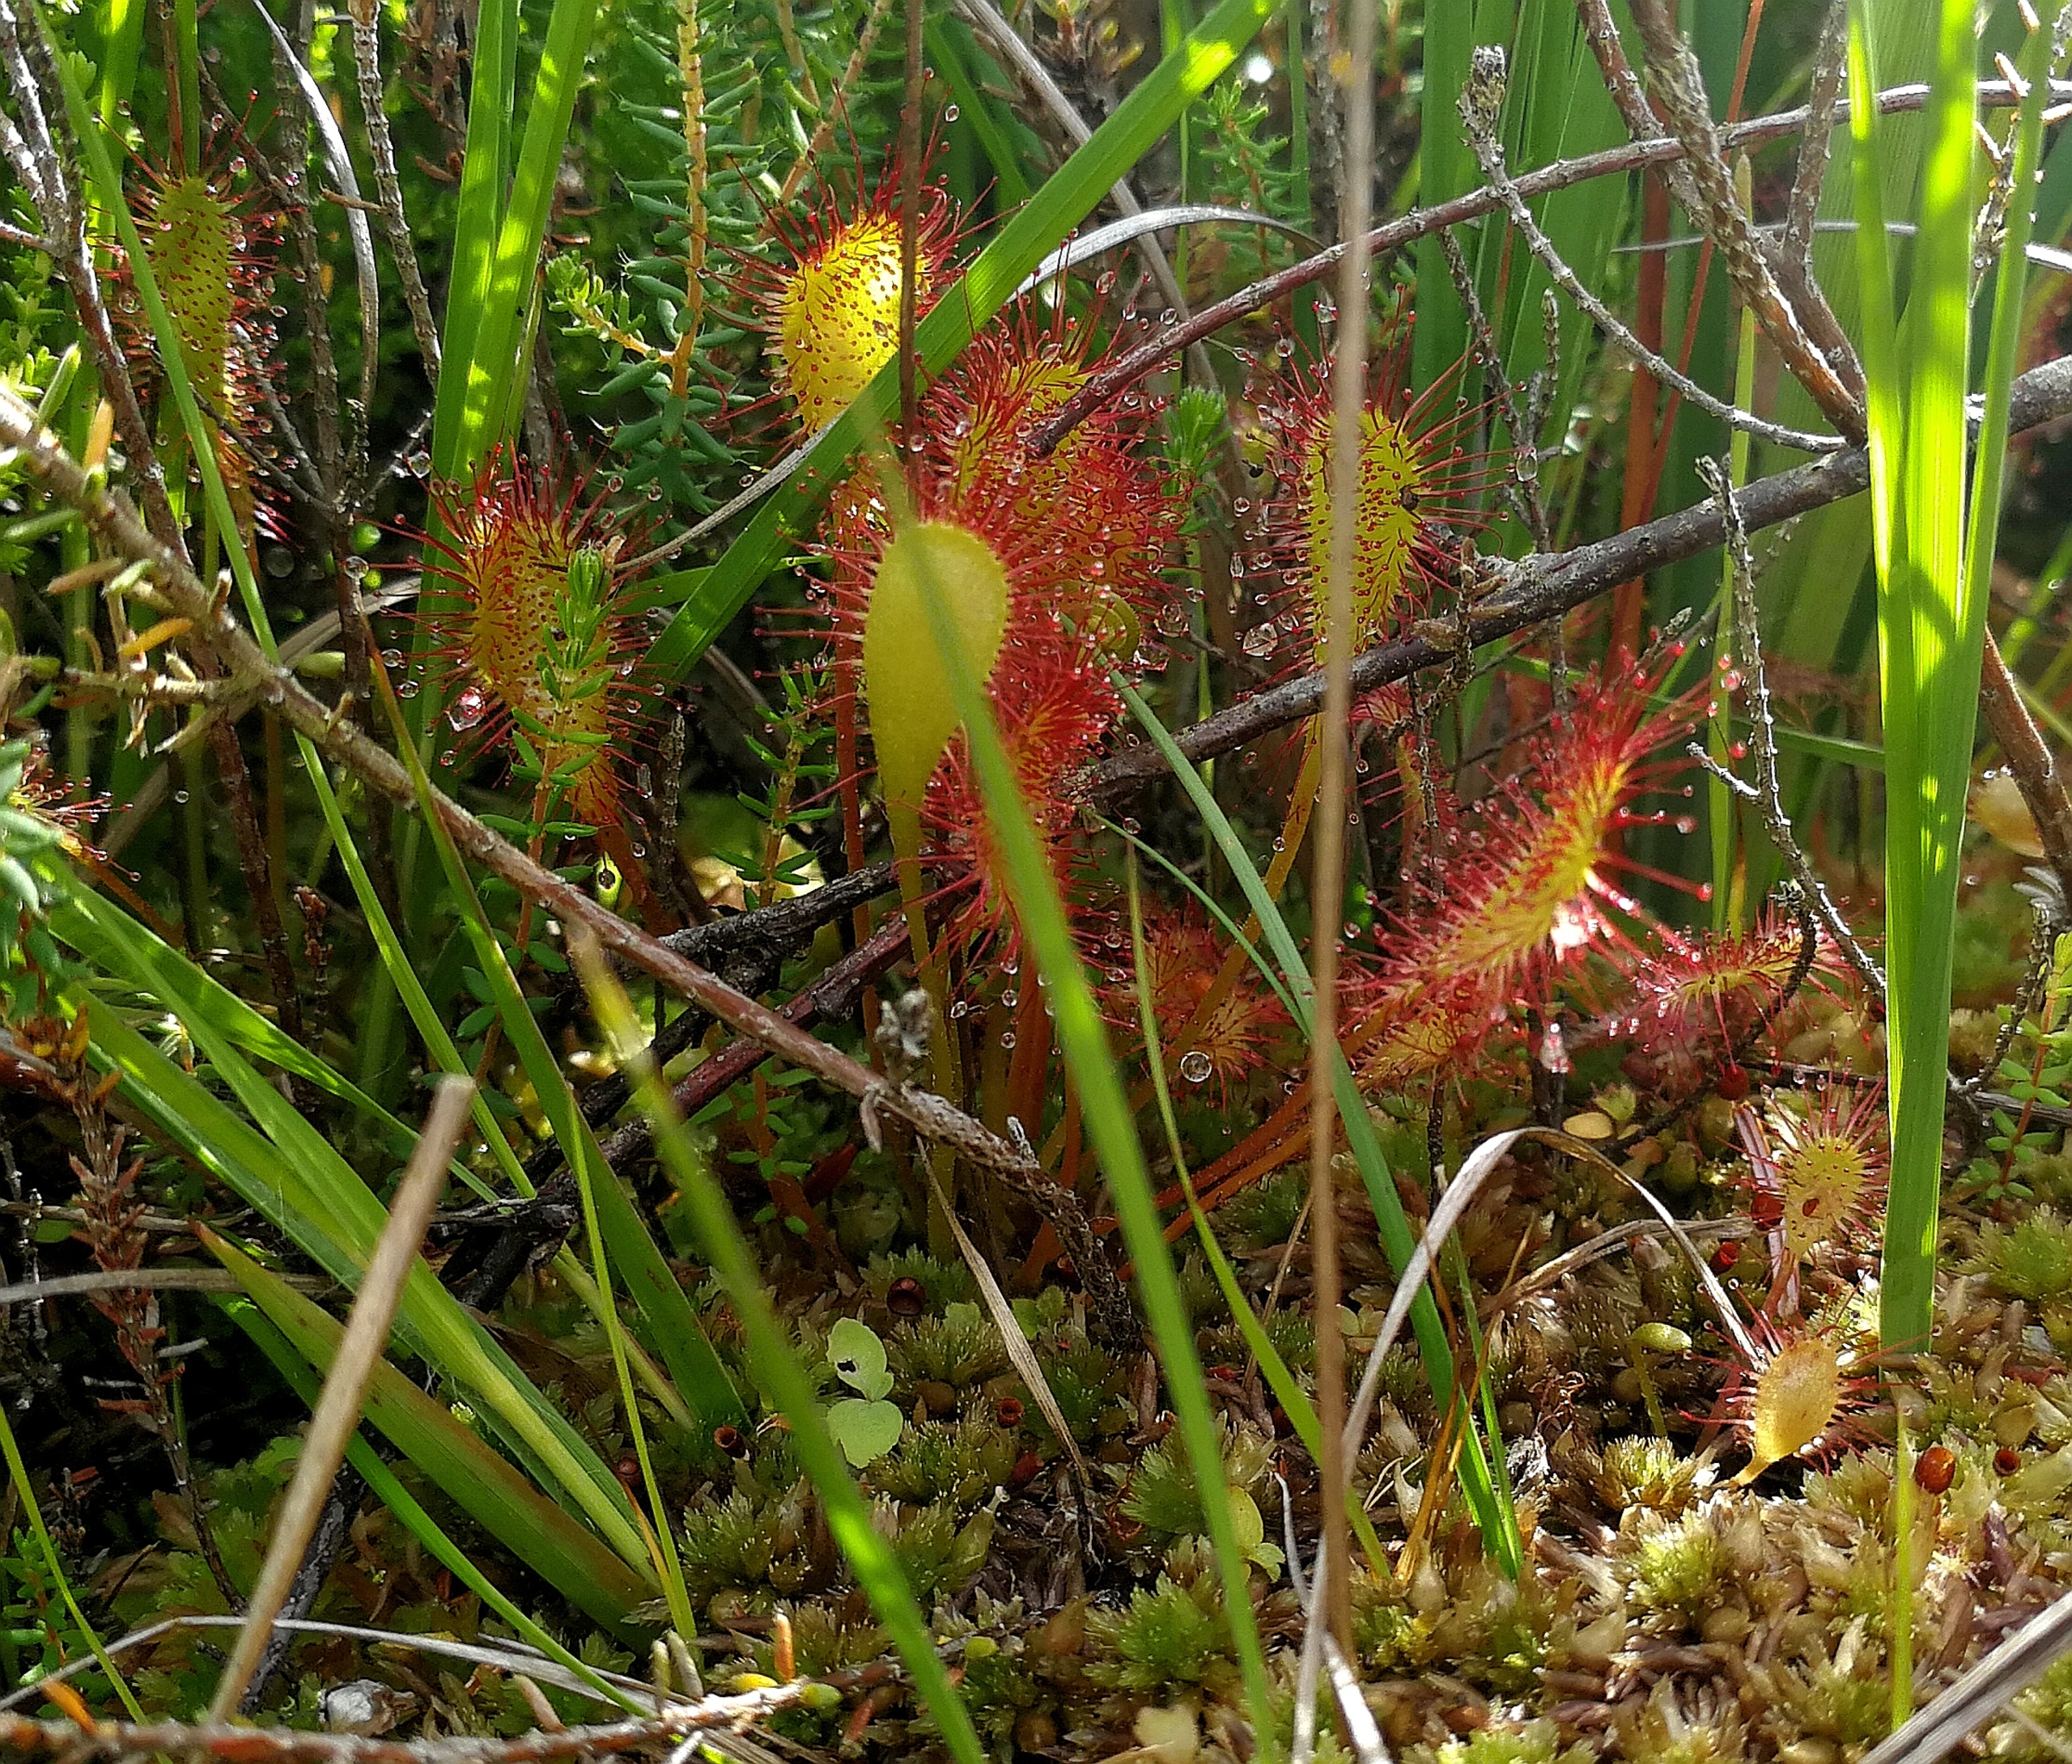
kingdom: Plantae
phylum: Tracheophyta
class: Magnoliopsida
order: Caryophyllales
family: Droseraceae
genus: Drosera
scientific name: Drosera intermedia
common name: Liden soldug
